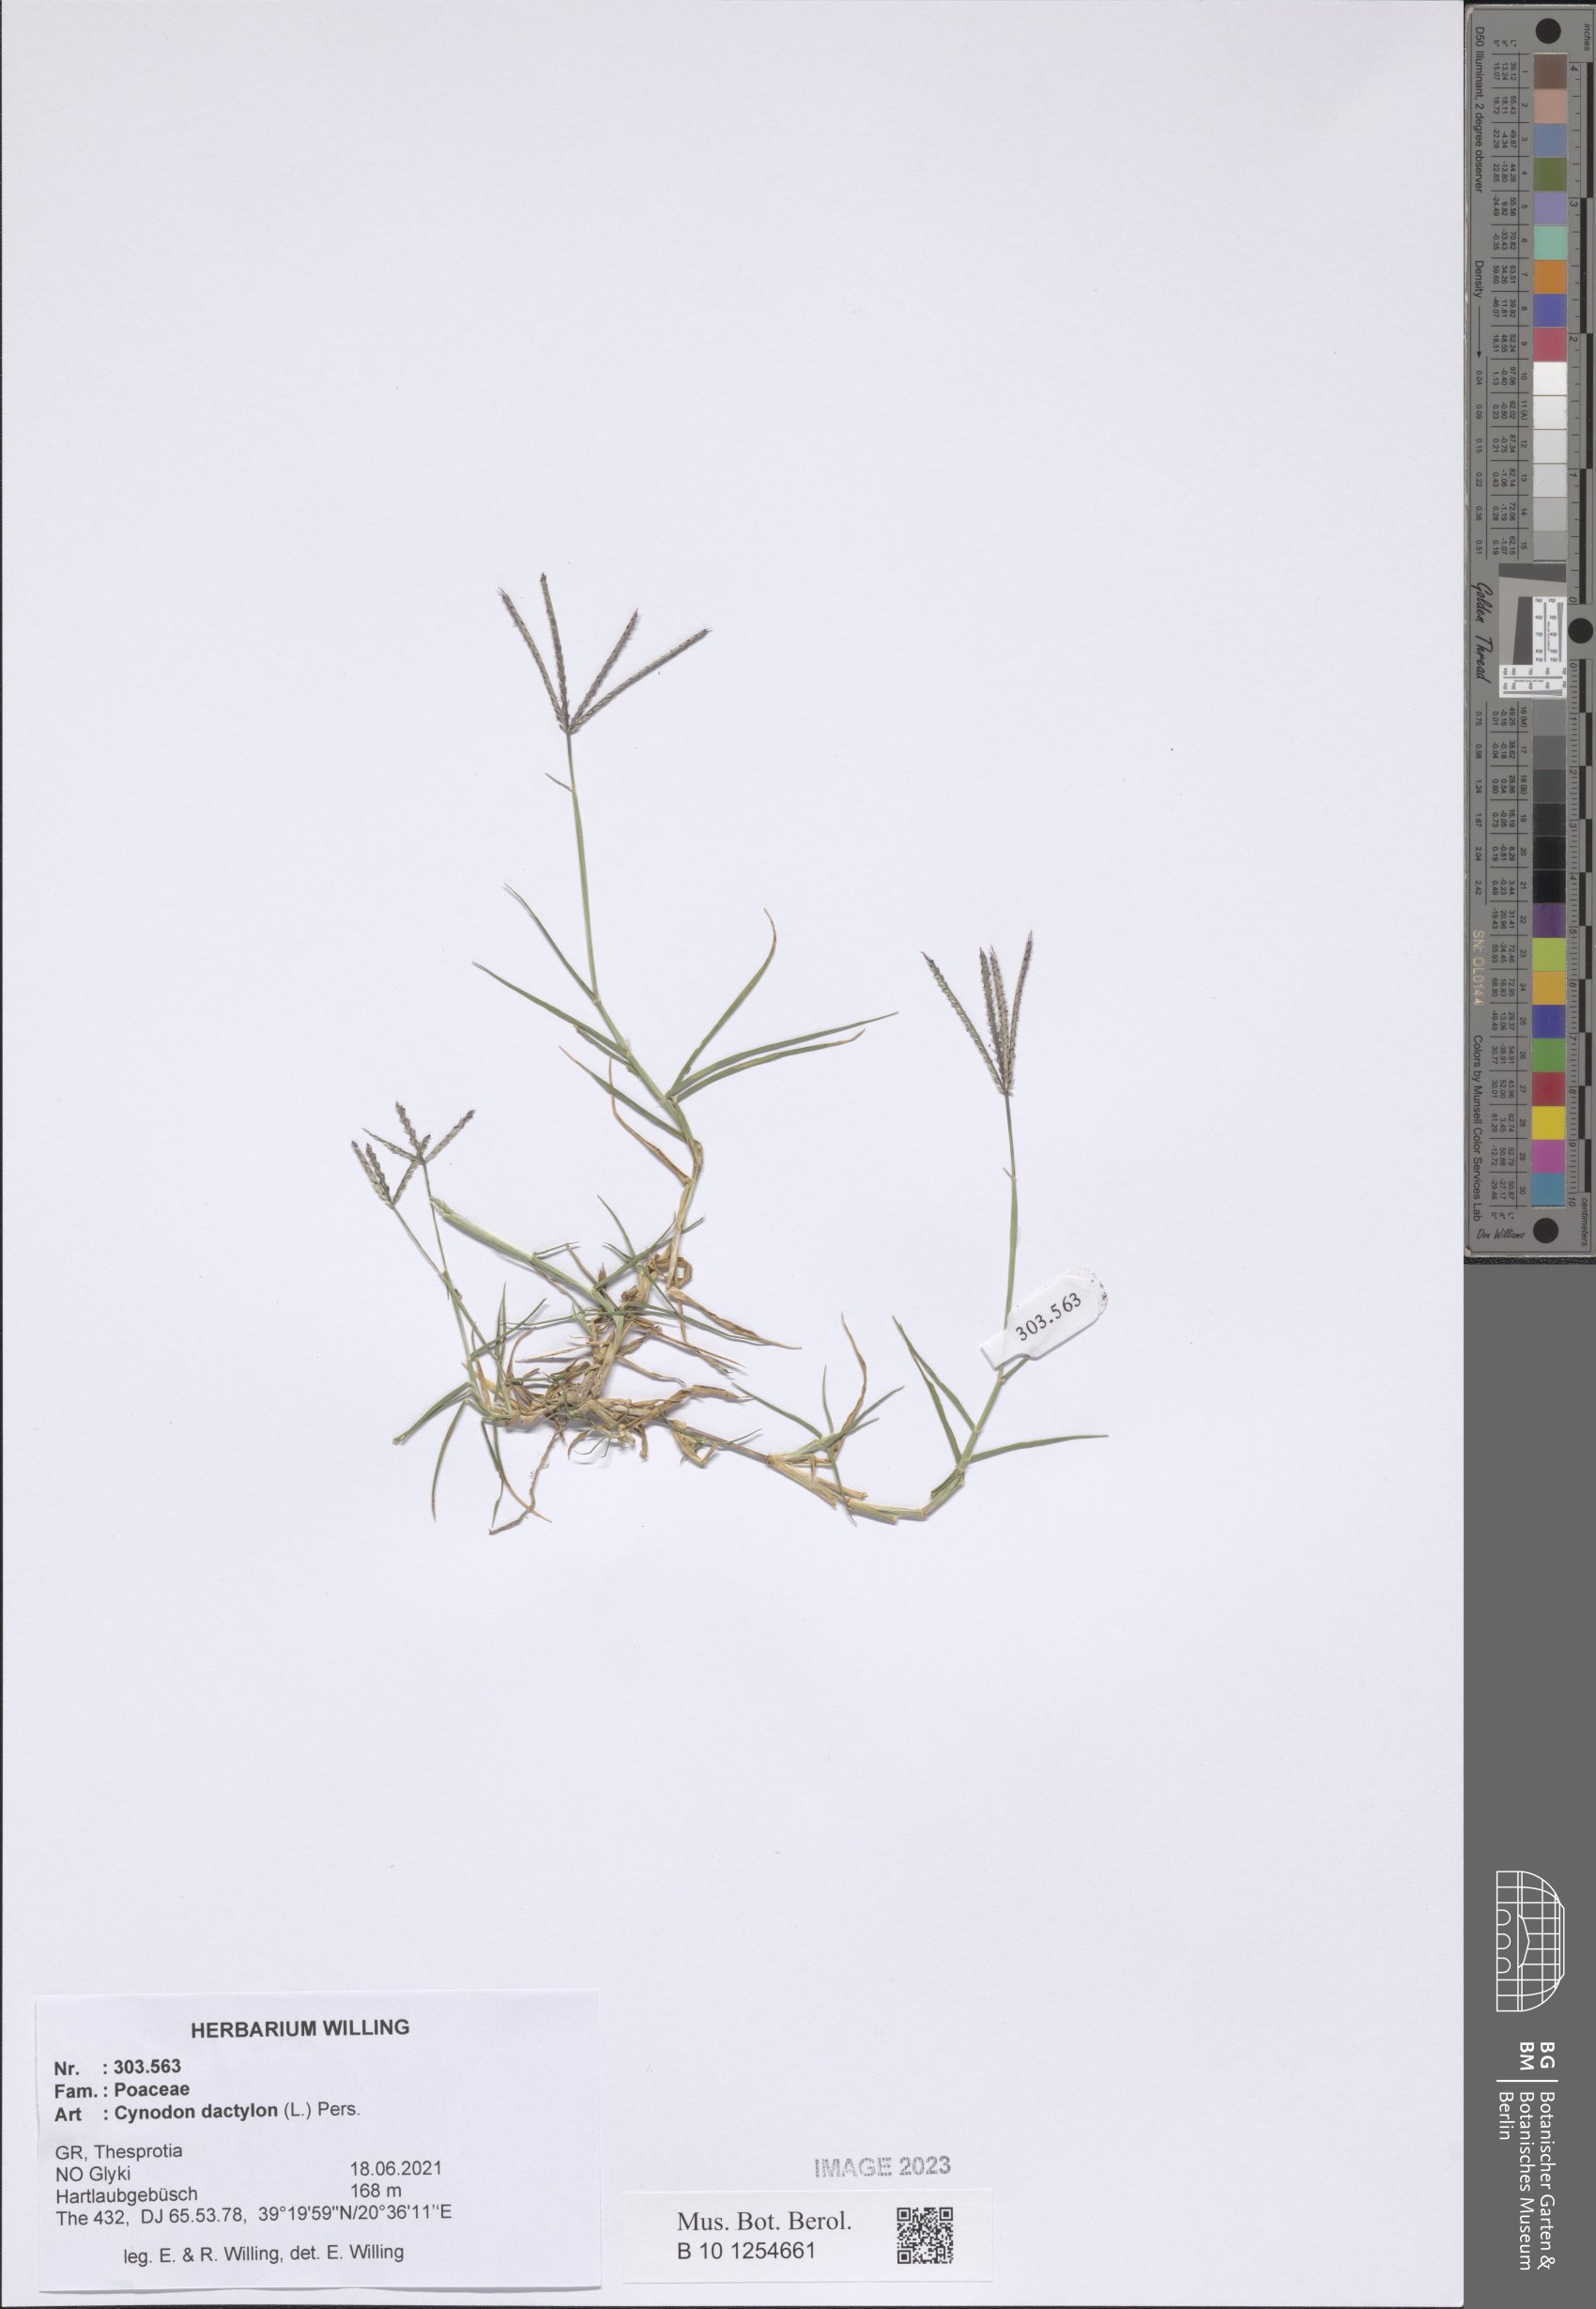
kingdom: Plantae
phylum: Tracheophyta
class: Liliopsida
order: Poales
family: Poaceae
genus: Cynodon
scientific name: Cynodon dactylon
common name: Bermuda grass
